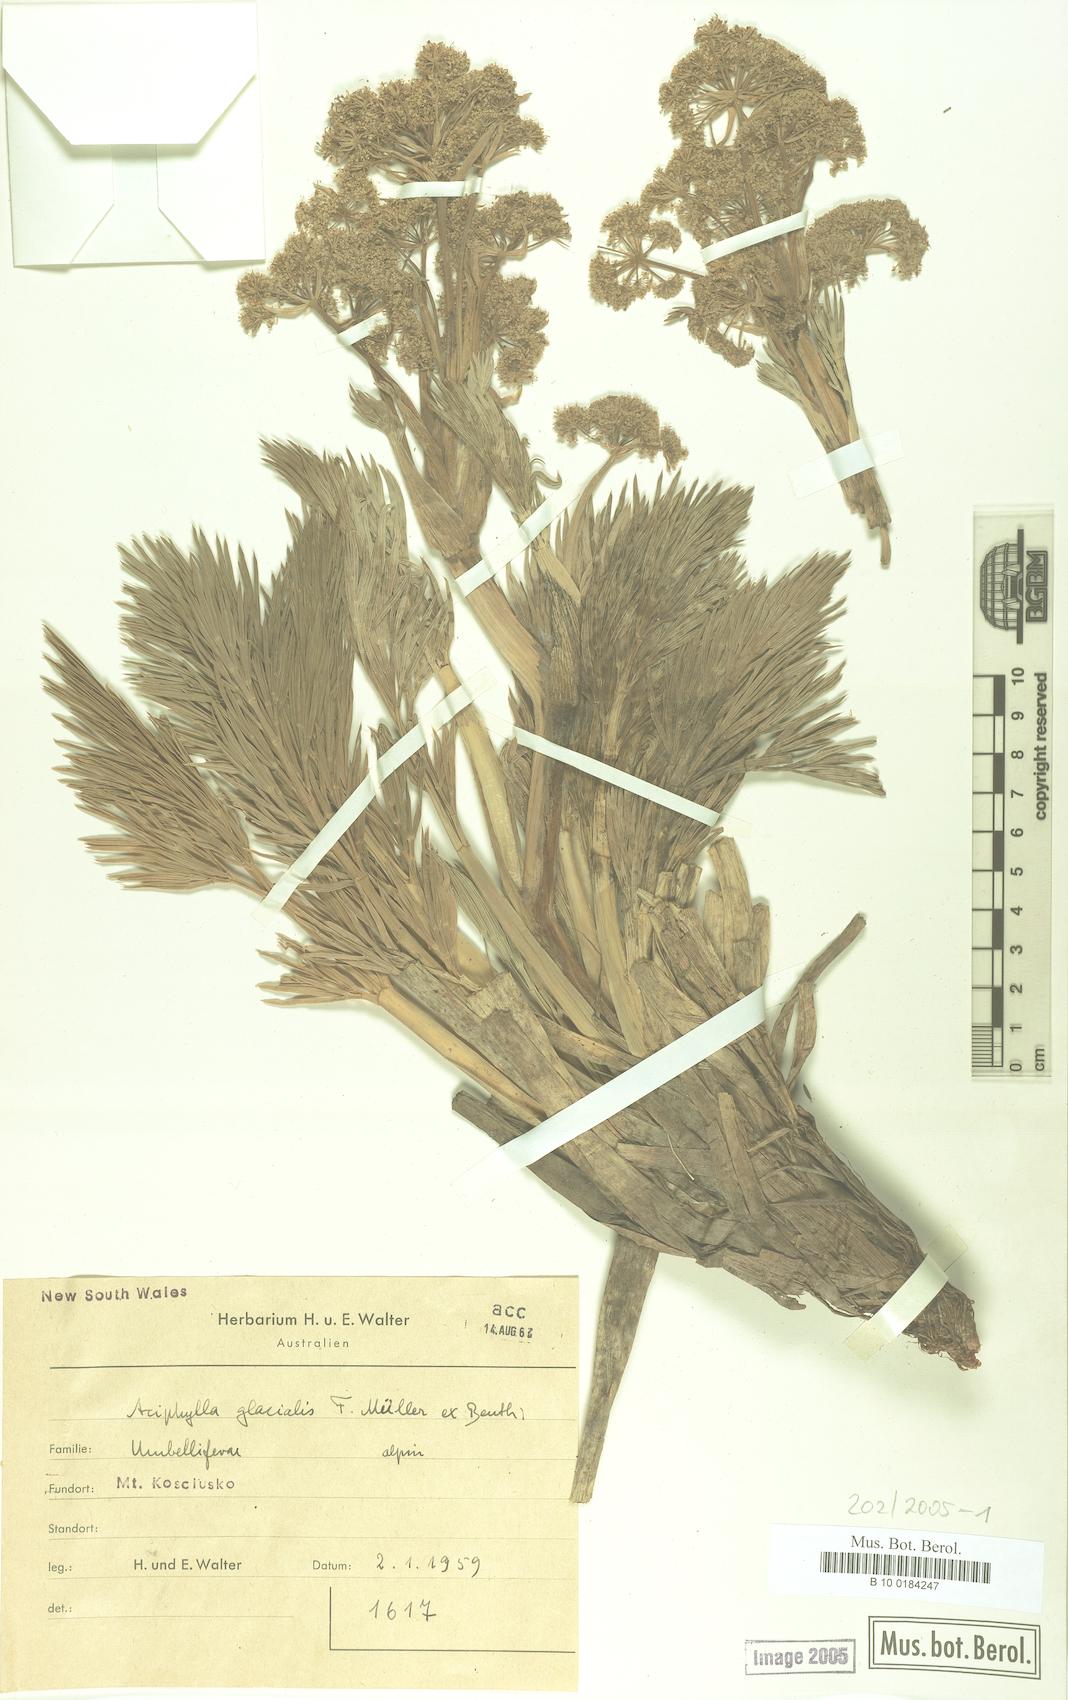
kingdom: Plantae
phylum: Tracheophyta
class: Magnoliopsida
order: Apiales
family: Apiaceae
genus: Aciphylla
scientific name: Aciphylla glacialis
